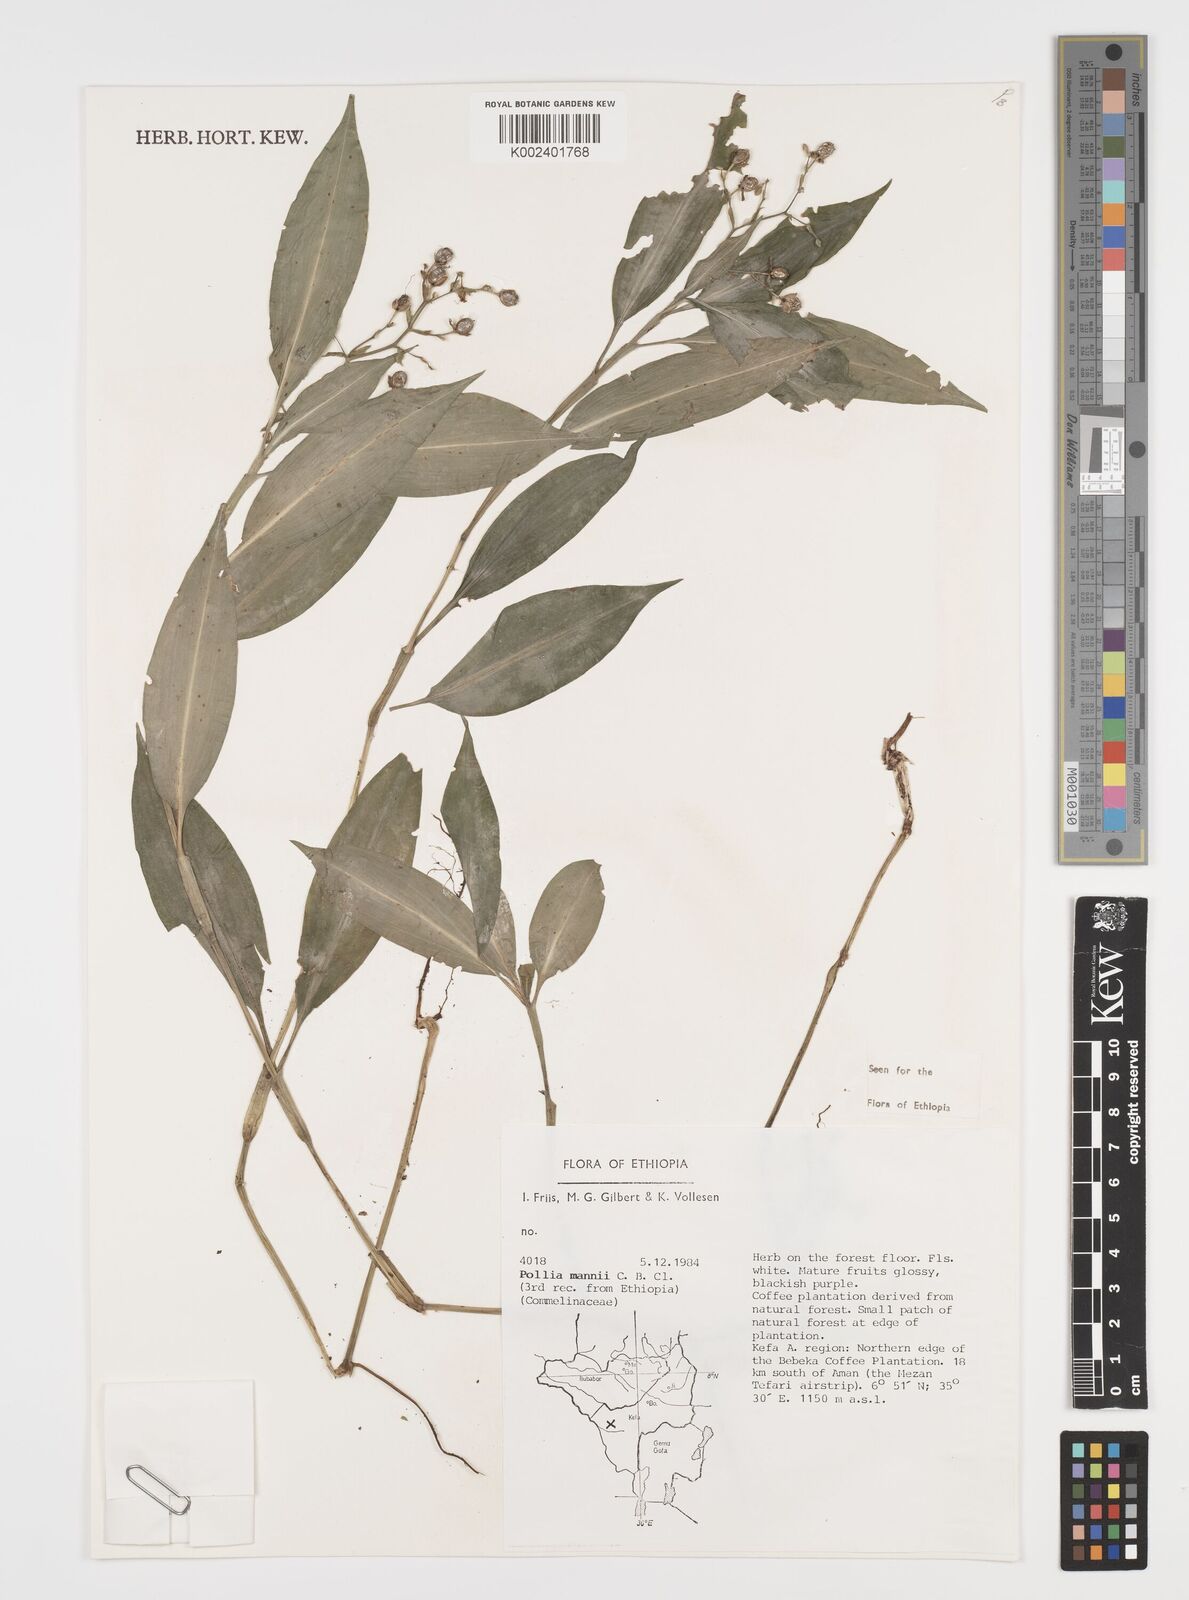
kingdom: Plantae
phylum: Tracheophyta
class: Liliopsida
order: Commelinales
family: Commelinaceae
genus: Pollia
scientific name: Pollia mannii
